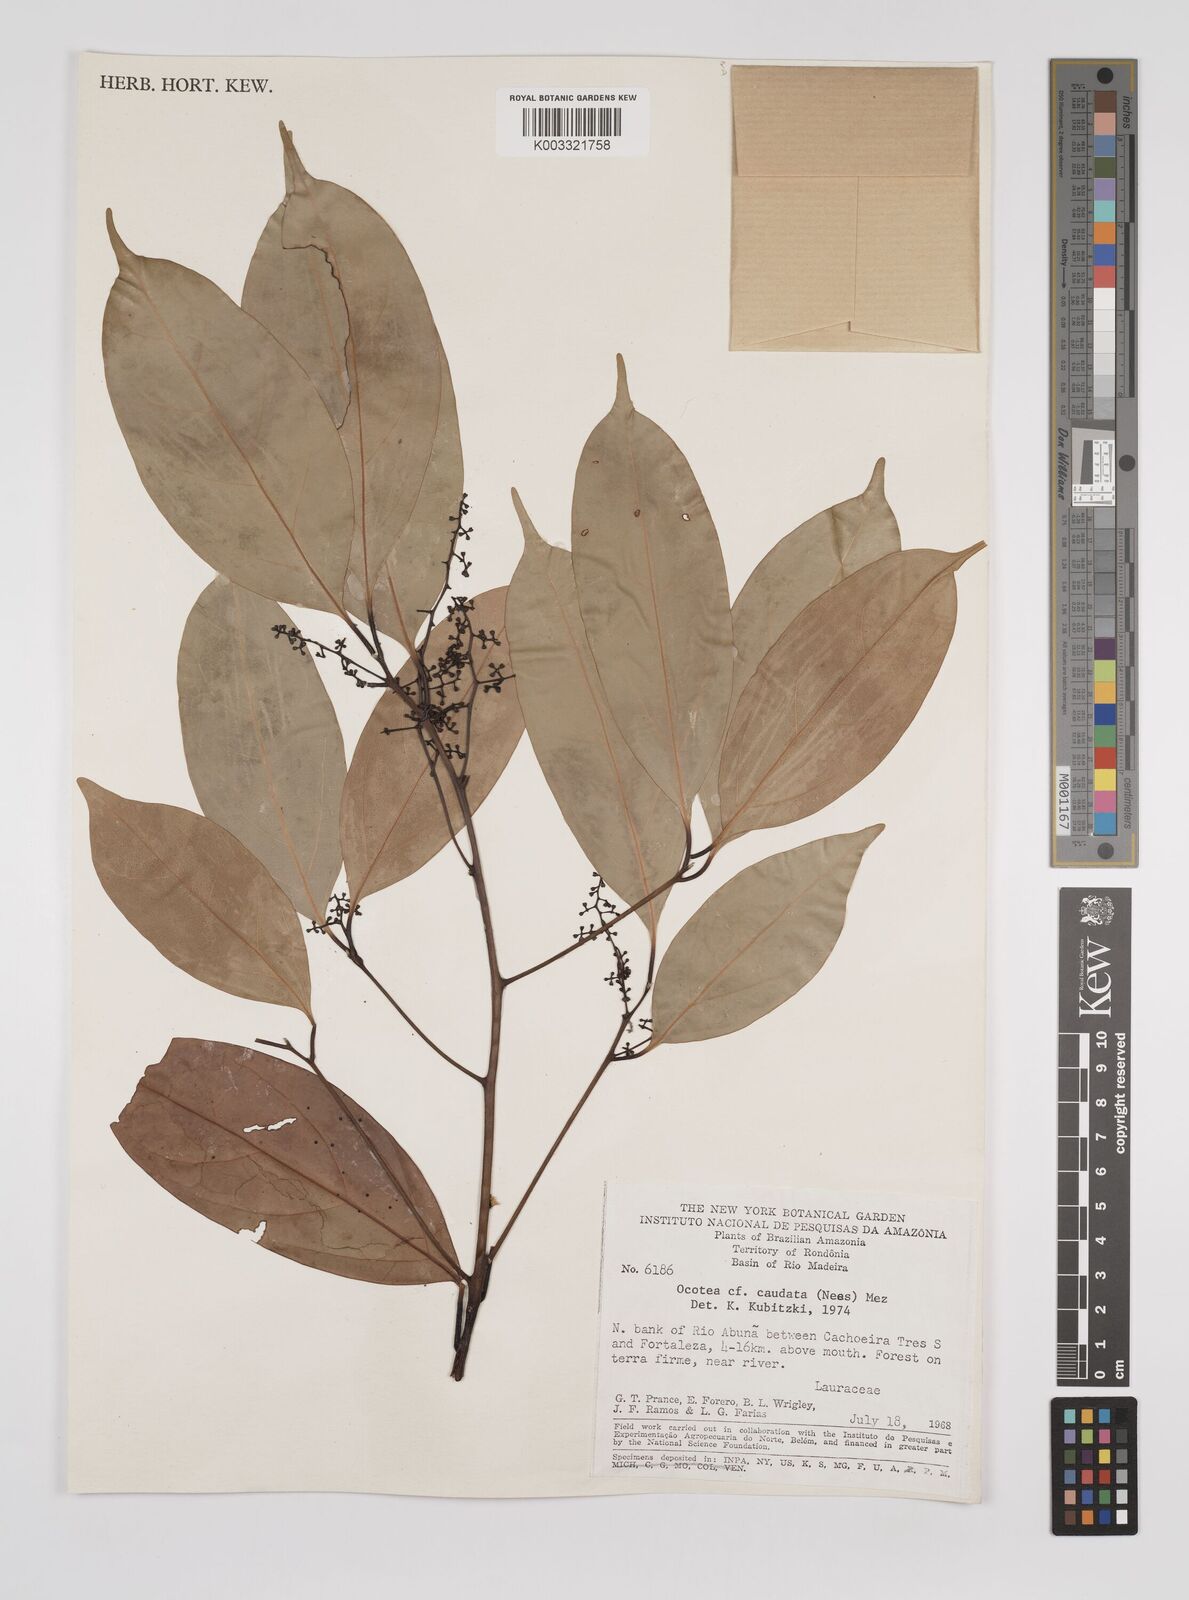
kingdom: Plantae
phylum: Tracheophyta
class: Magnoliopsida
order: Laurales
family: Lauraceae
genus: Ocotea
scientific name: Ocotea leptobotra
